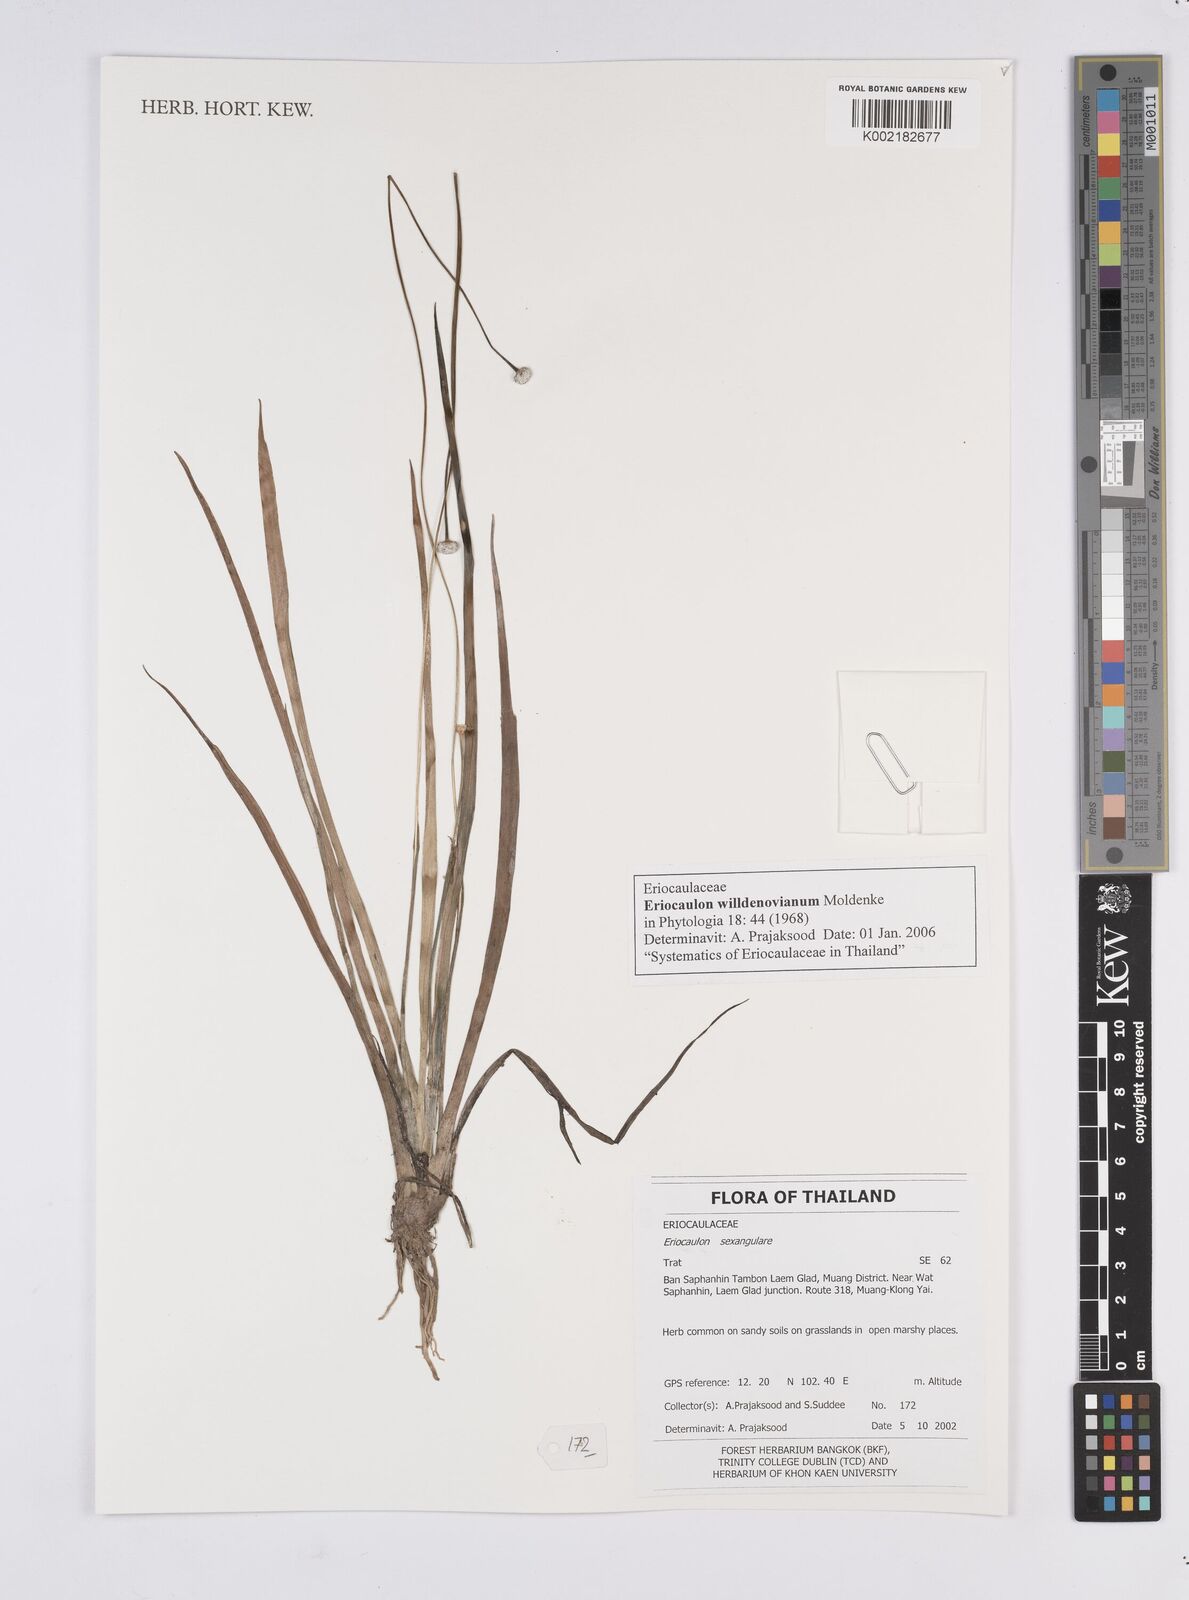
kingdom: Plantae
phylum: Tracheophyta
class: Liliopsida
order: Poales
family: Eriocaulaceae
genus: Eriocaulon
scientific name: Eriocaulon willdenovianum
